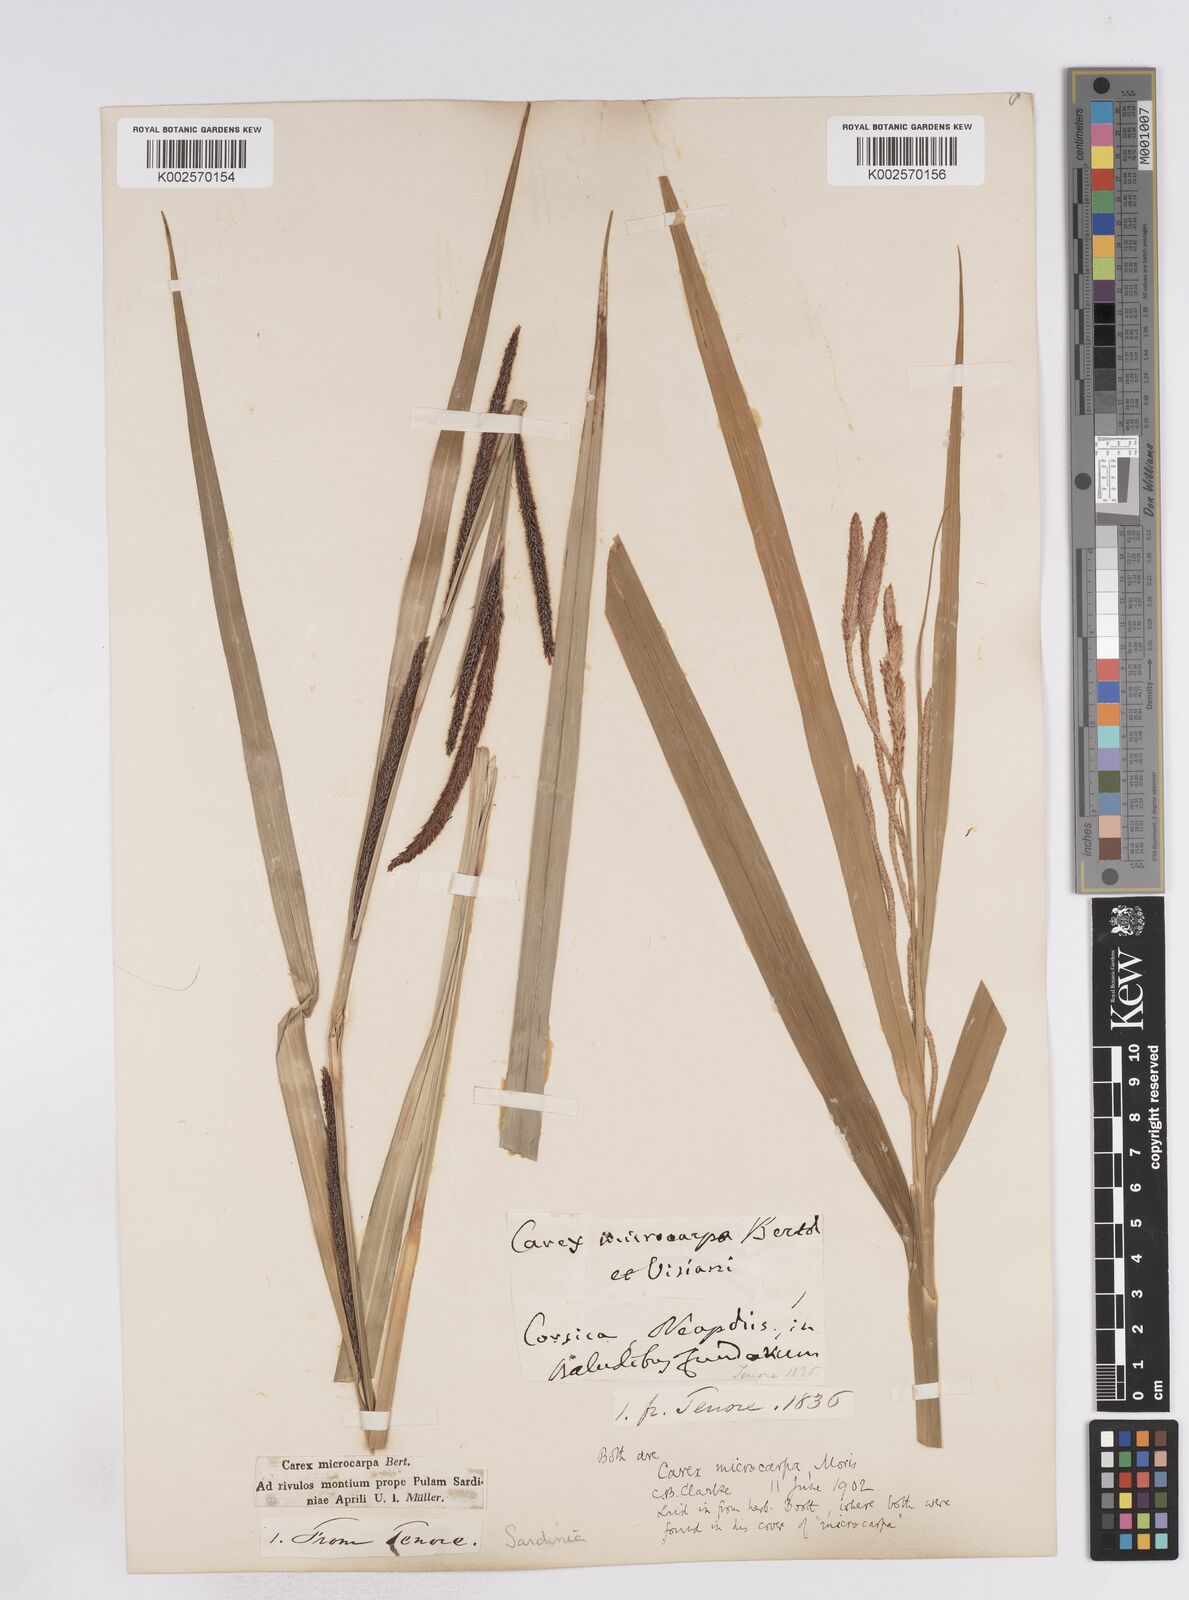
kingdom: Plantae
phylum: Tracheophyta
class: Liliopsida
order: Poales
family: Cyperaceae
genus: Carex
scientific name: Carex microcarpa
